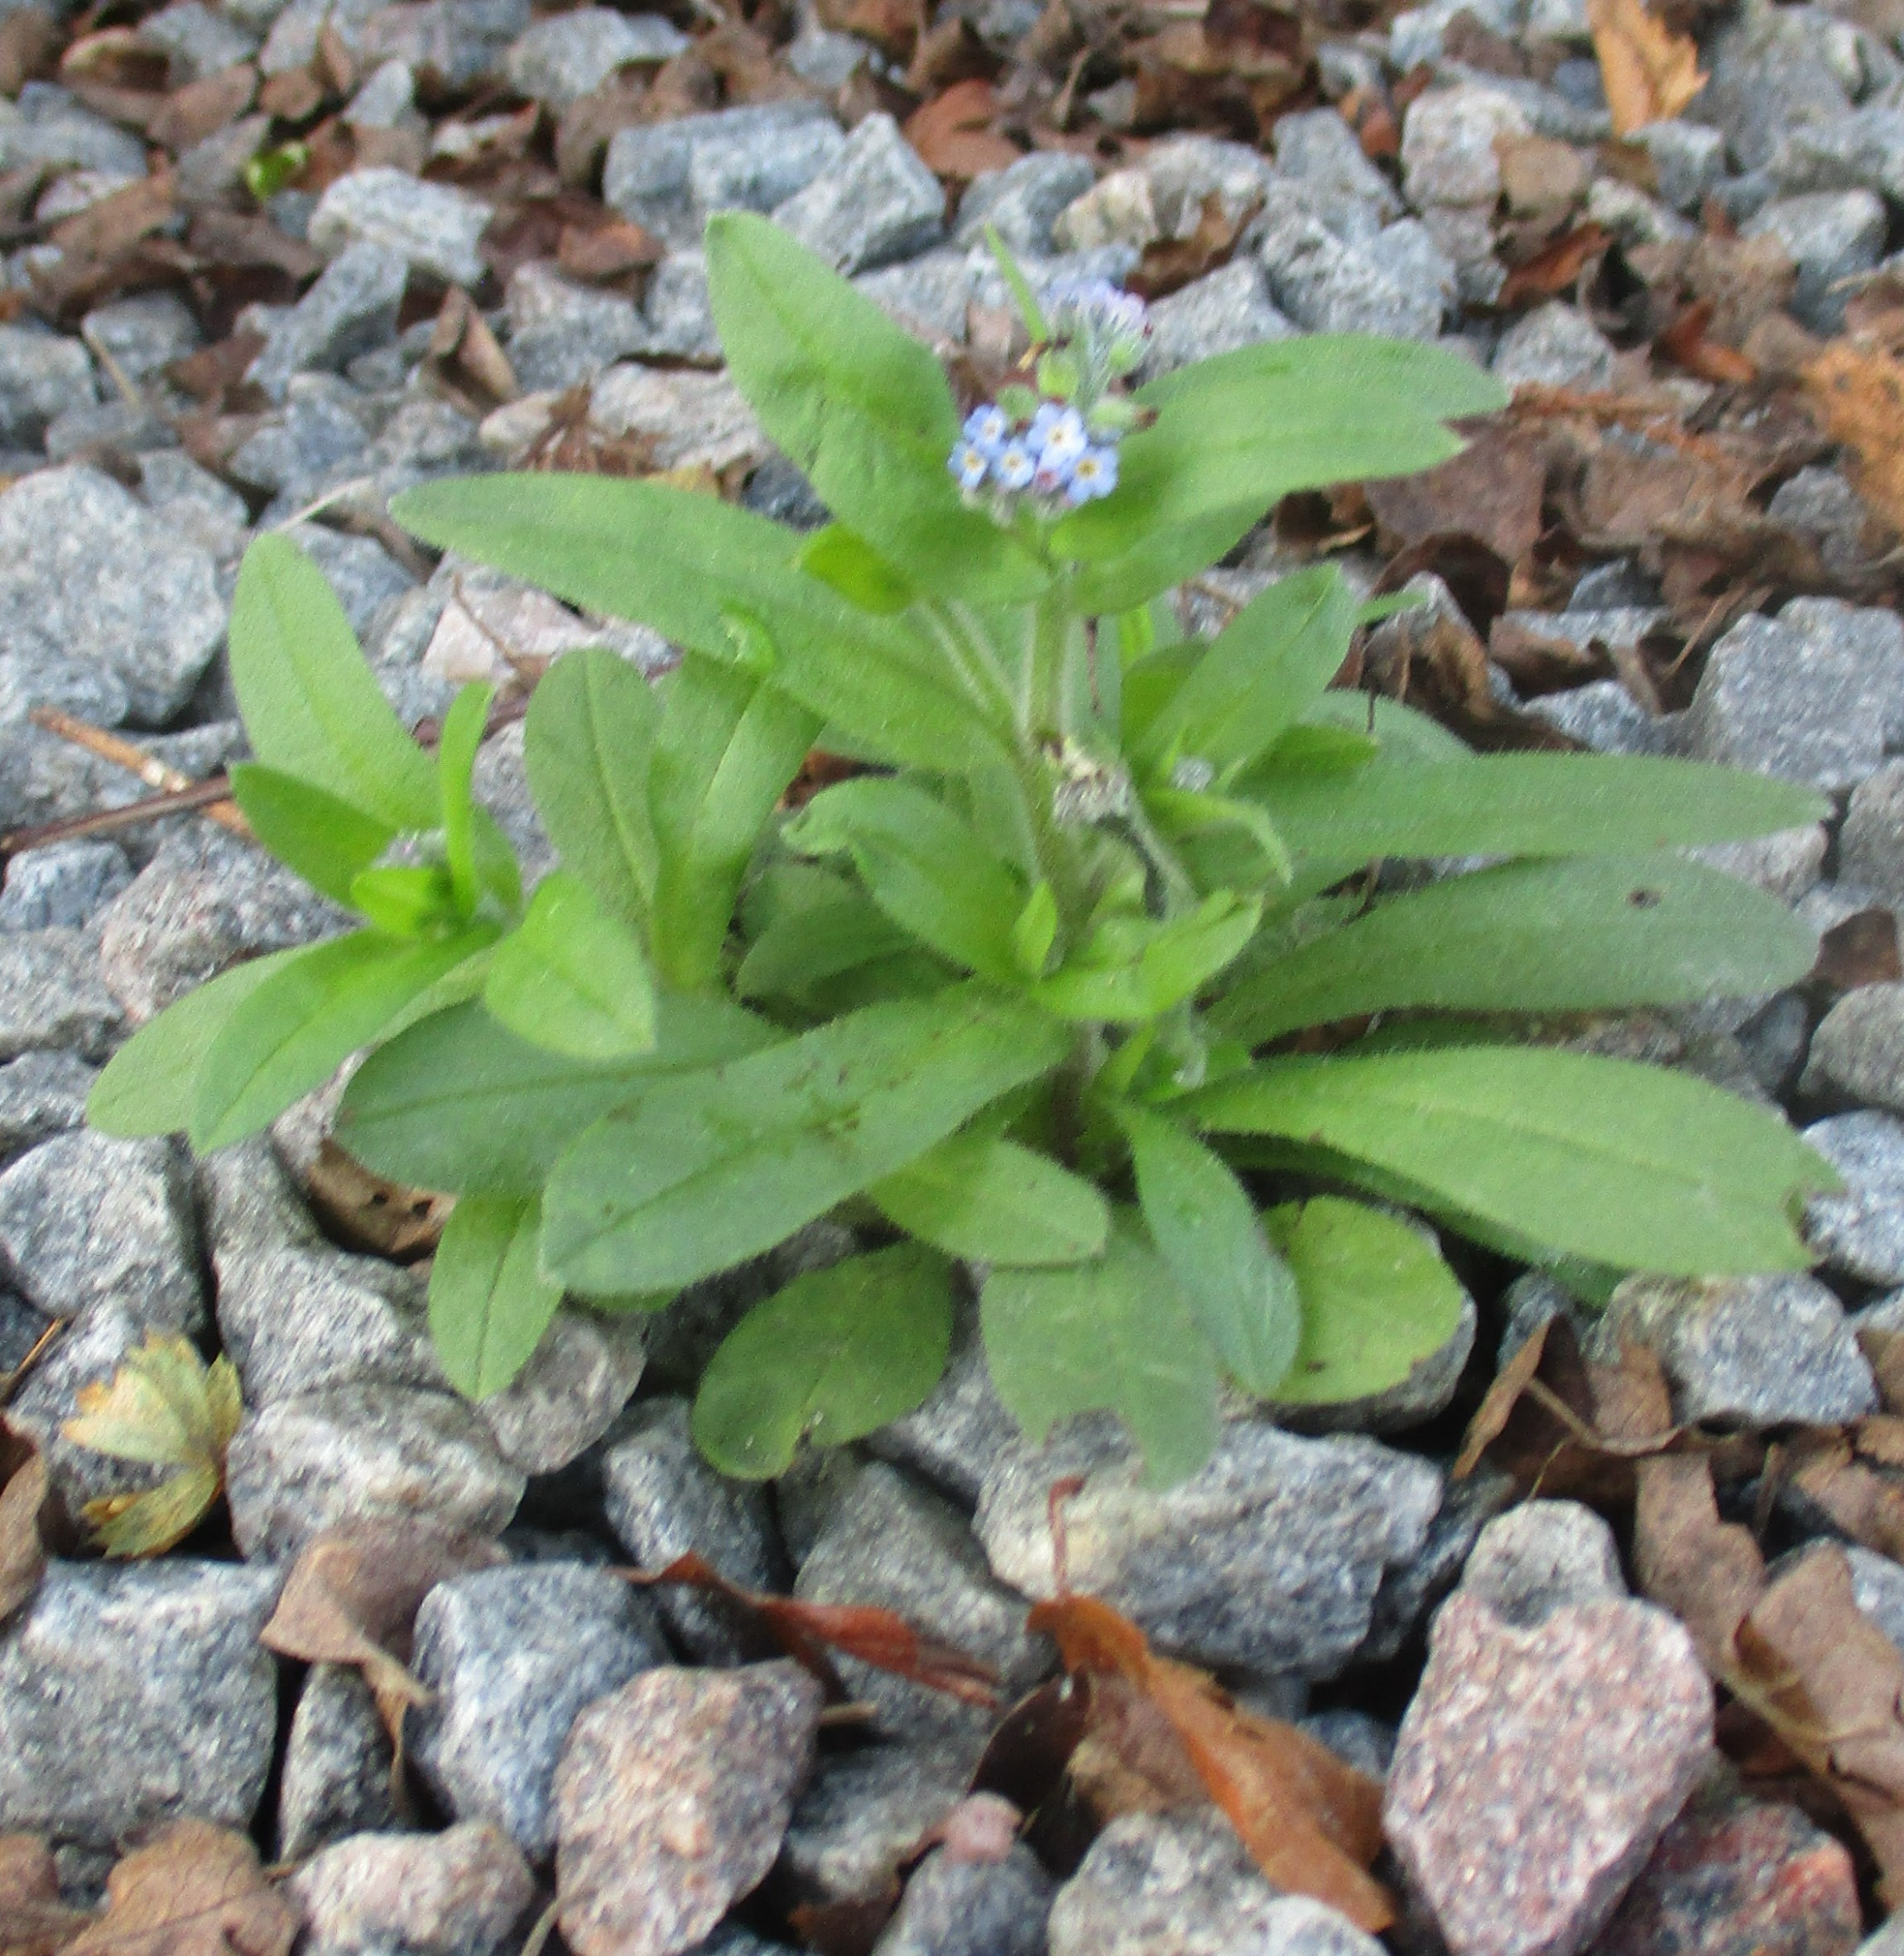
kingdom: Plantae
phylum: Tracheophyta
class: Magnoliopsida
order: Boraginales
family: Boraginaceae
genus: Myosotis
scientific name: Myosotis arvensis
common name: Mark-forglemmigej
